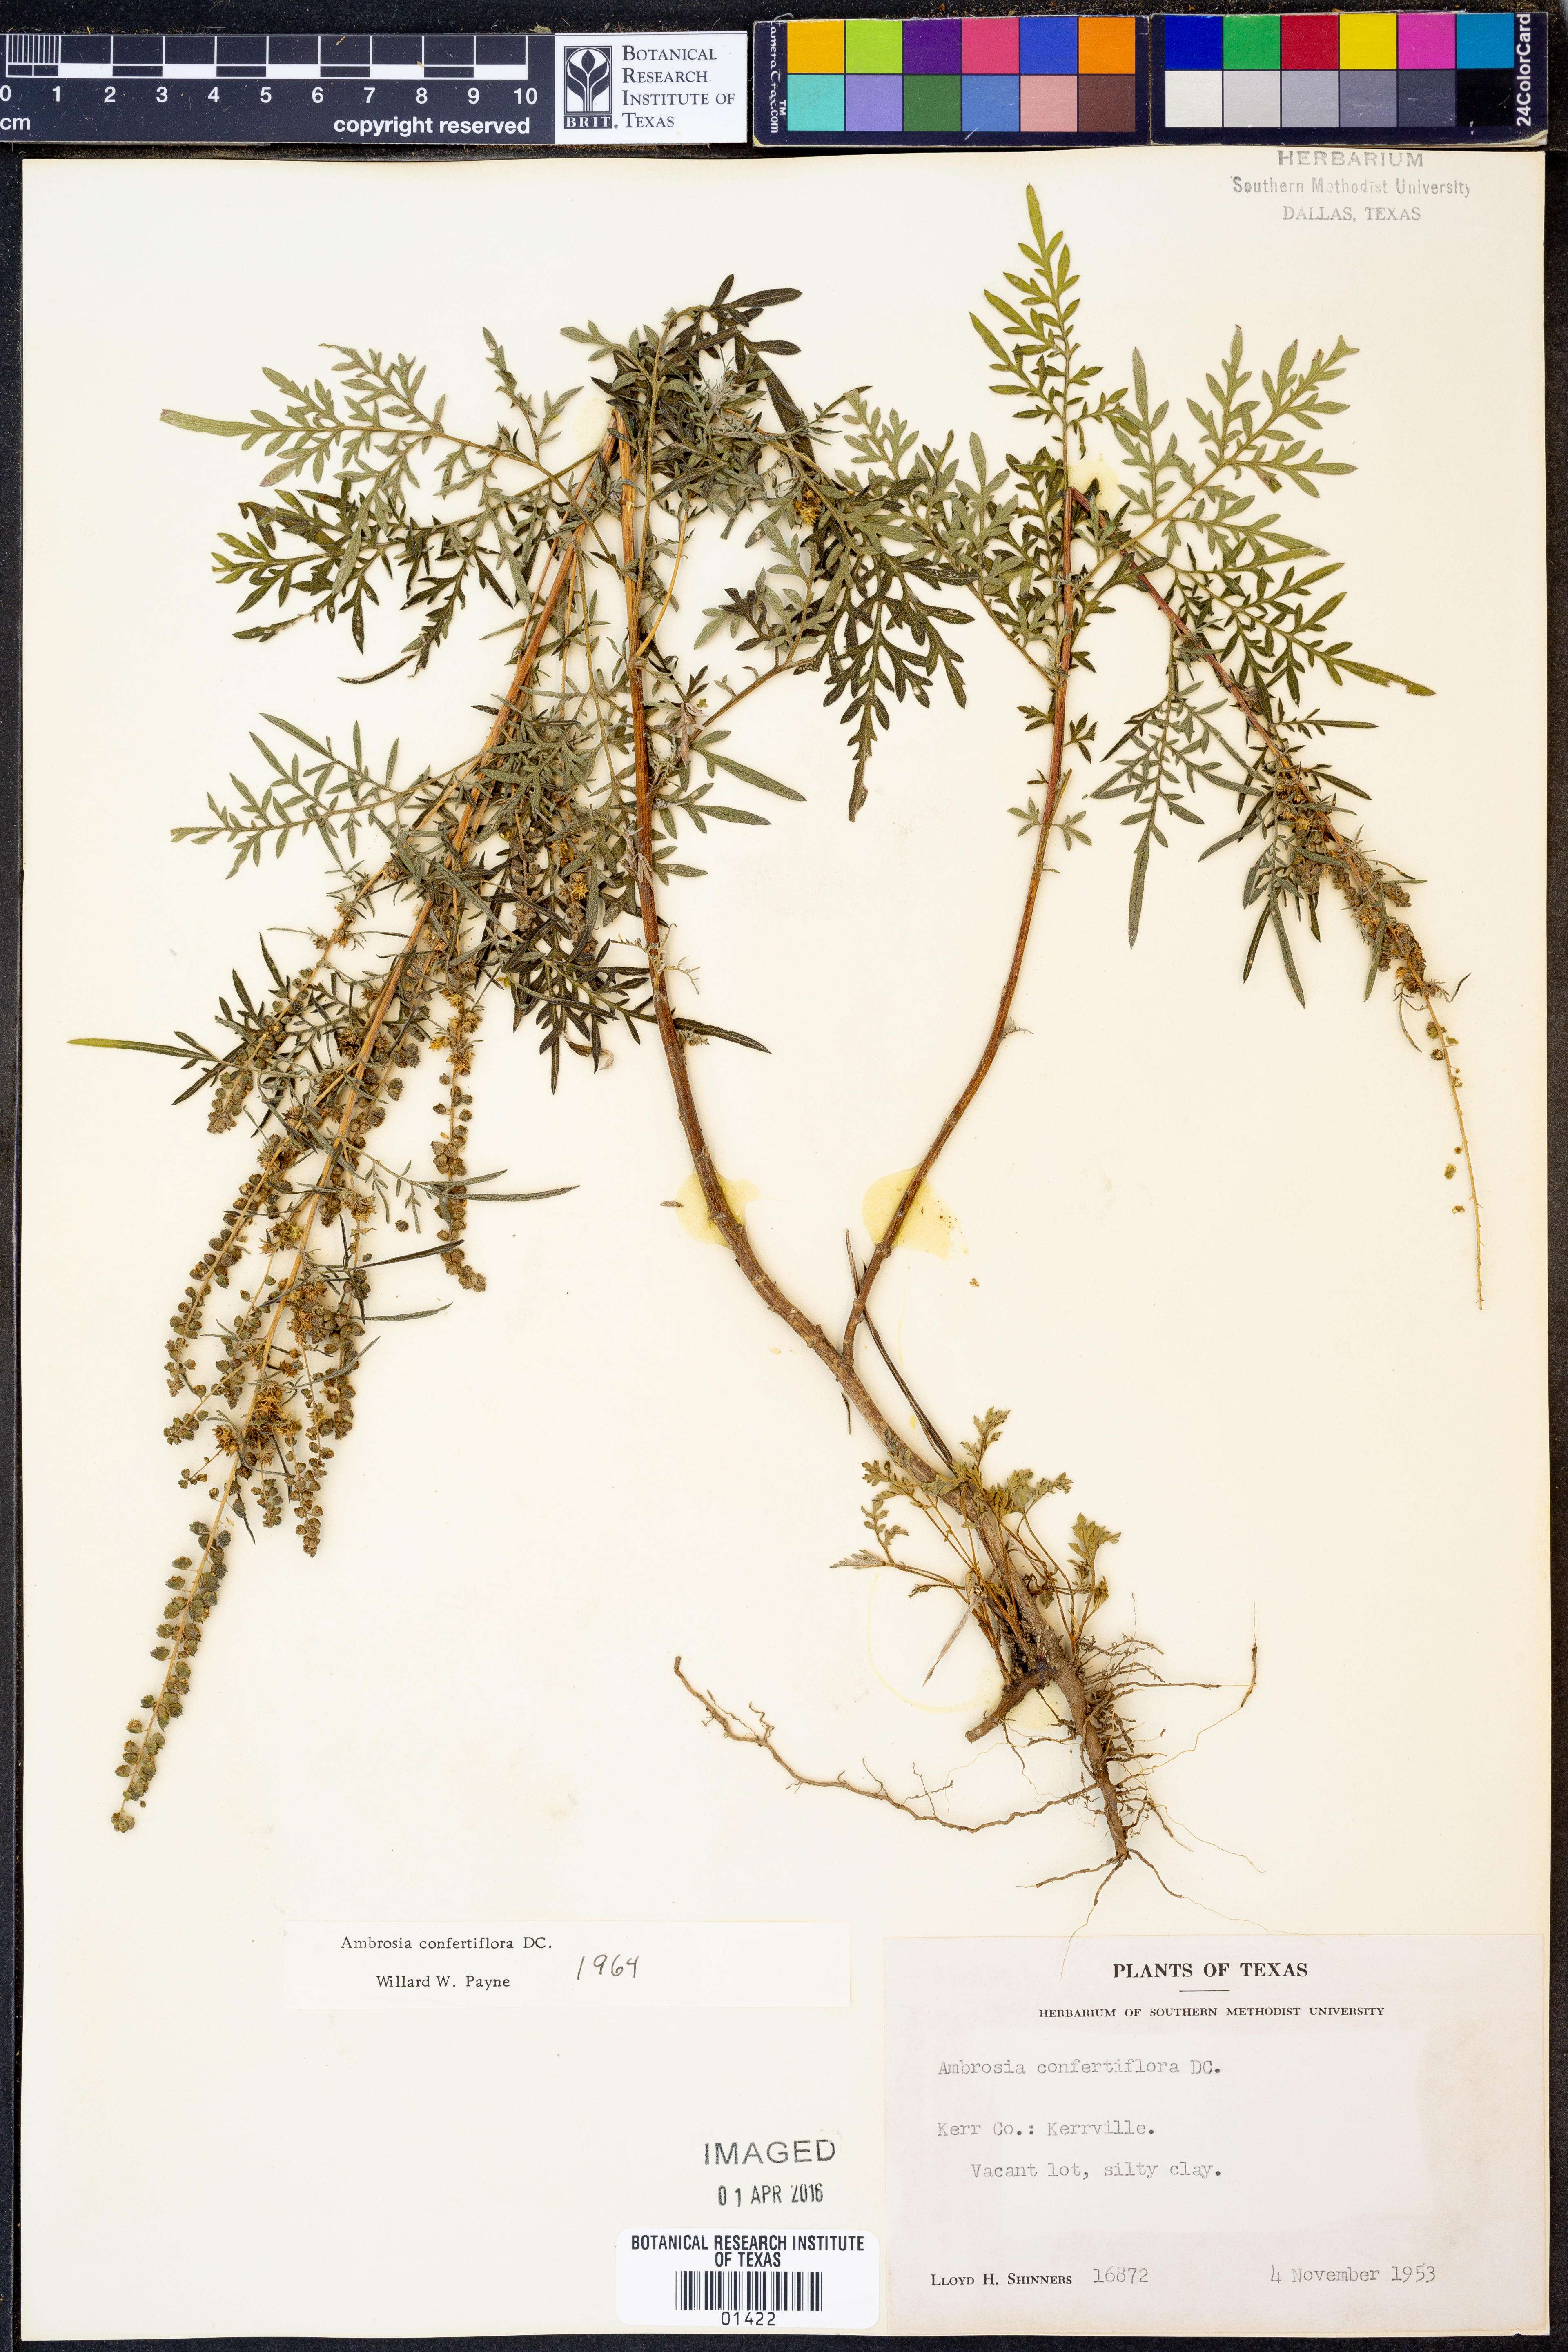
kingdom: Plantae
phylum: Tracheophyta
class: Magnoliopsida
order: Asterales
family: Asteraceae
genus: Ambrosia
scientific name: Ambrosia confertiflora
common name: Bur ragweed
